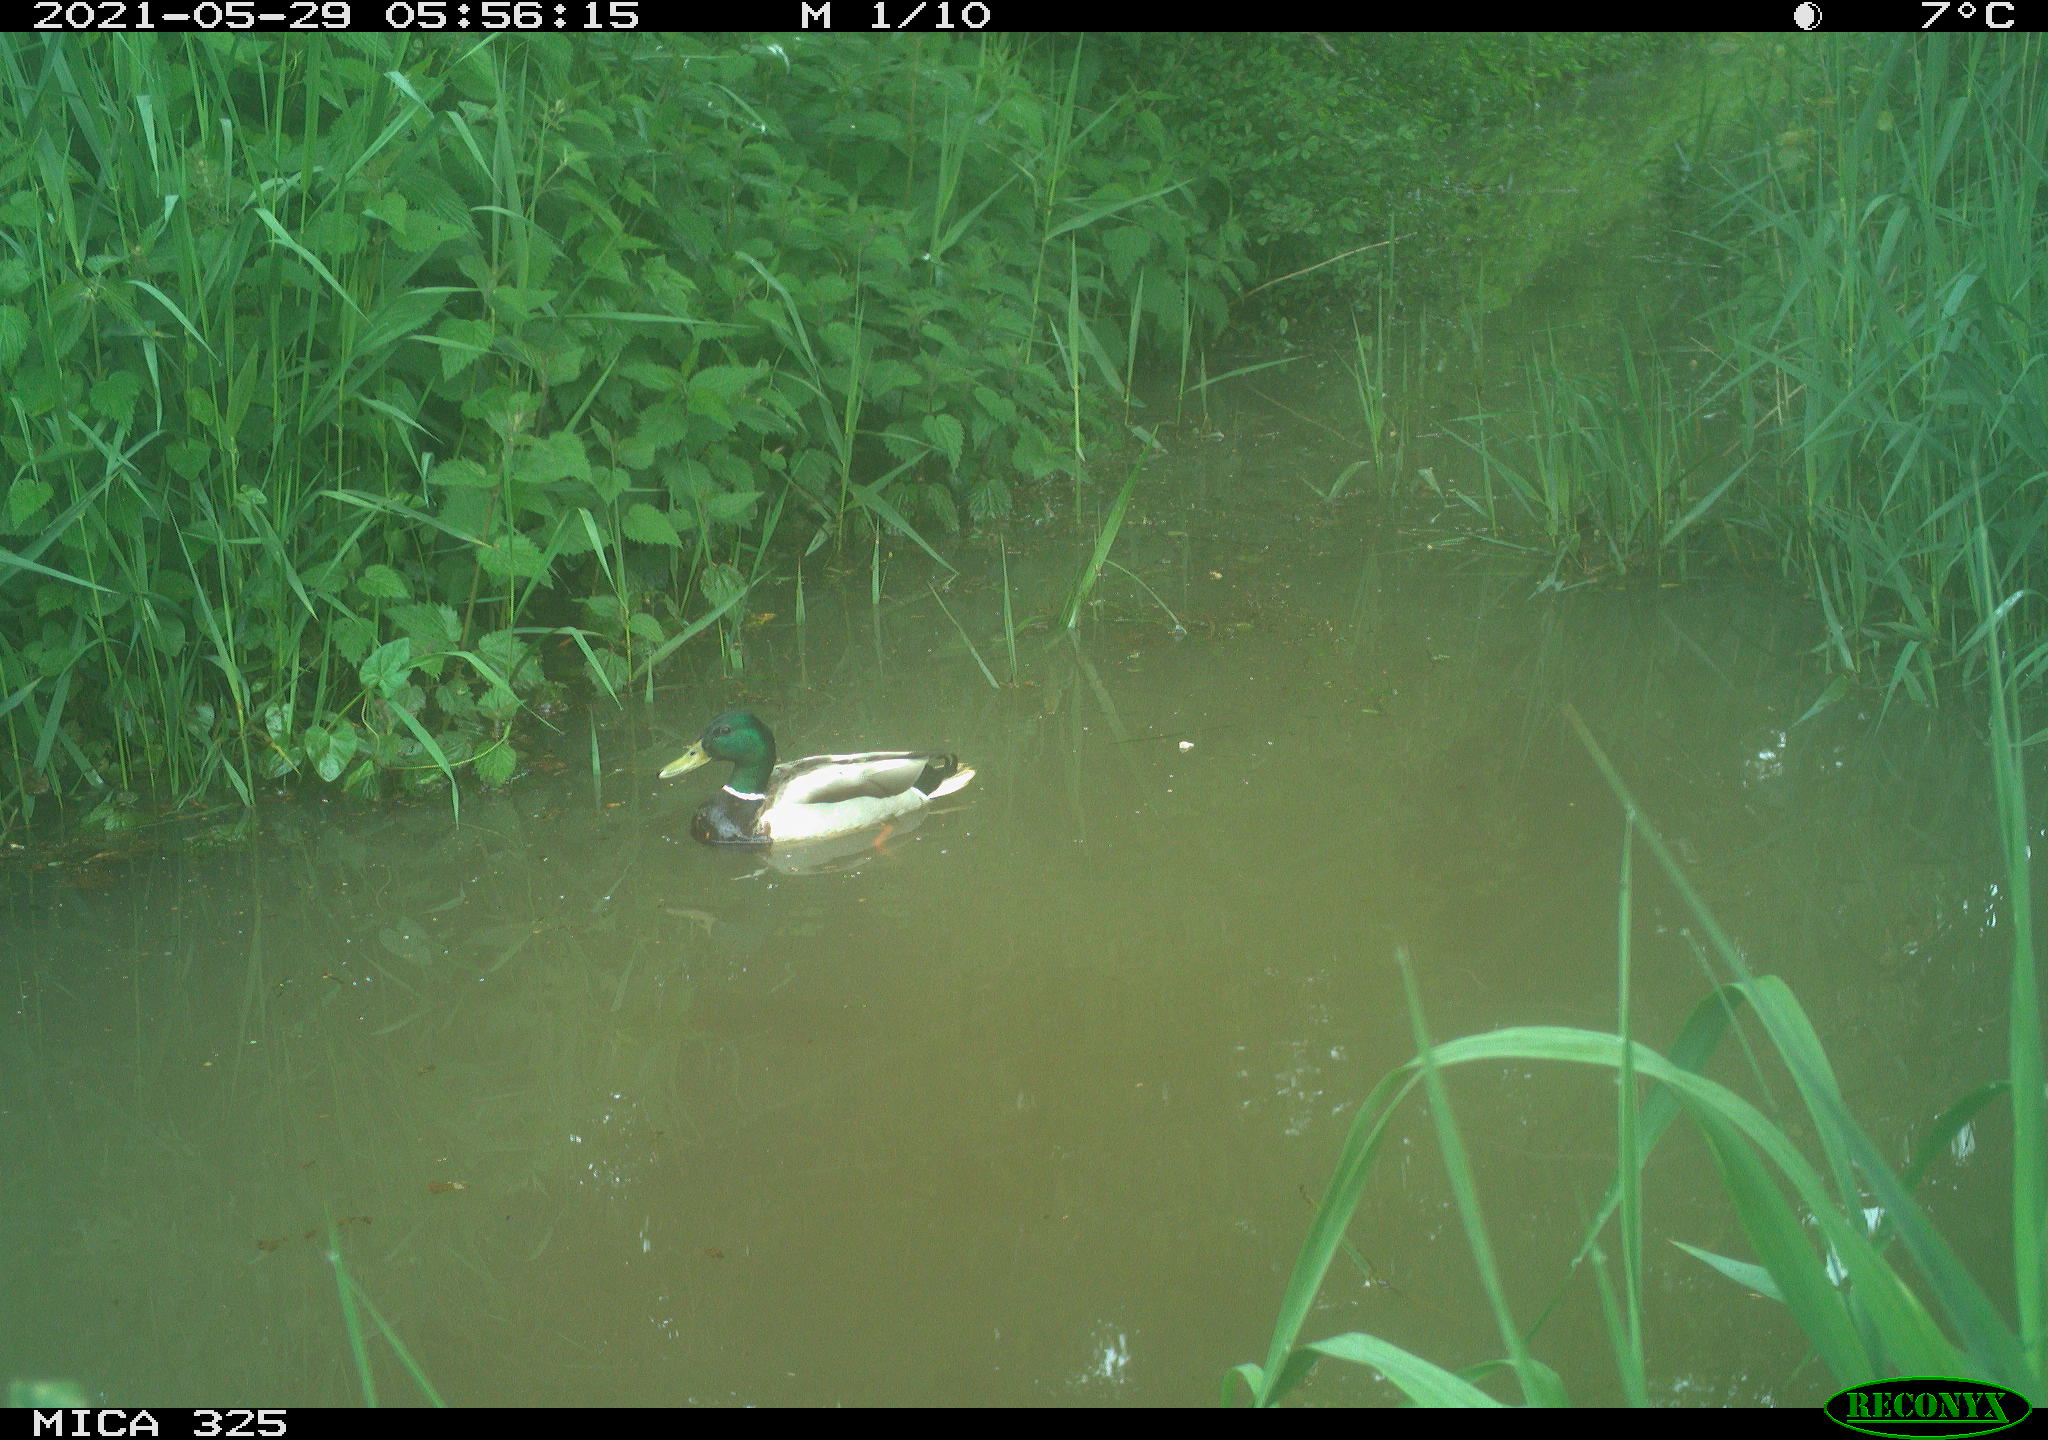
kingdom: Animalia
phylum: Chordata
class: Aves
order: Anseriformes
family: Anatidae
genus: Anas
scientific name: Anas platyrhynchos
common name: Mallard
